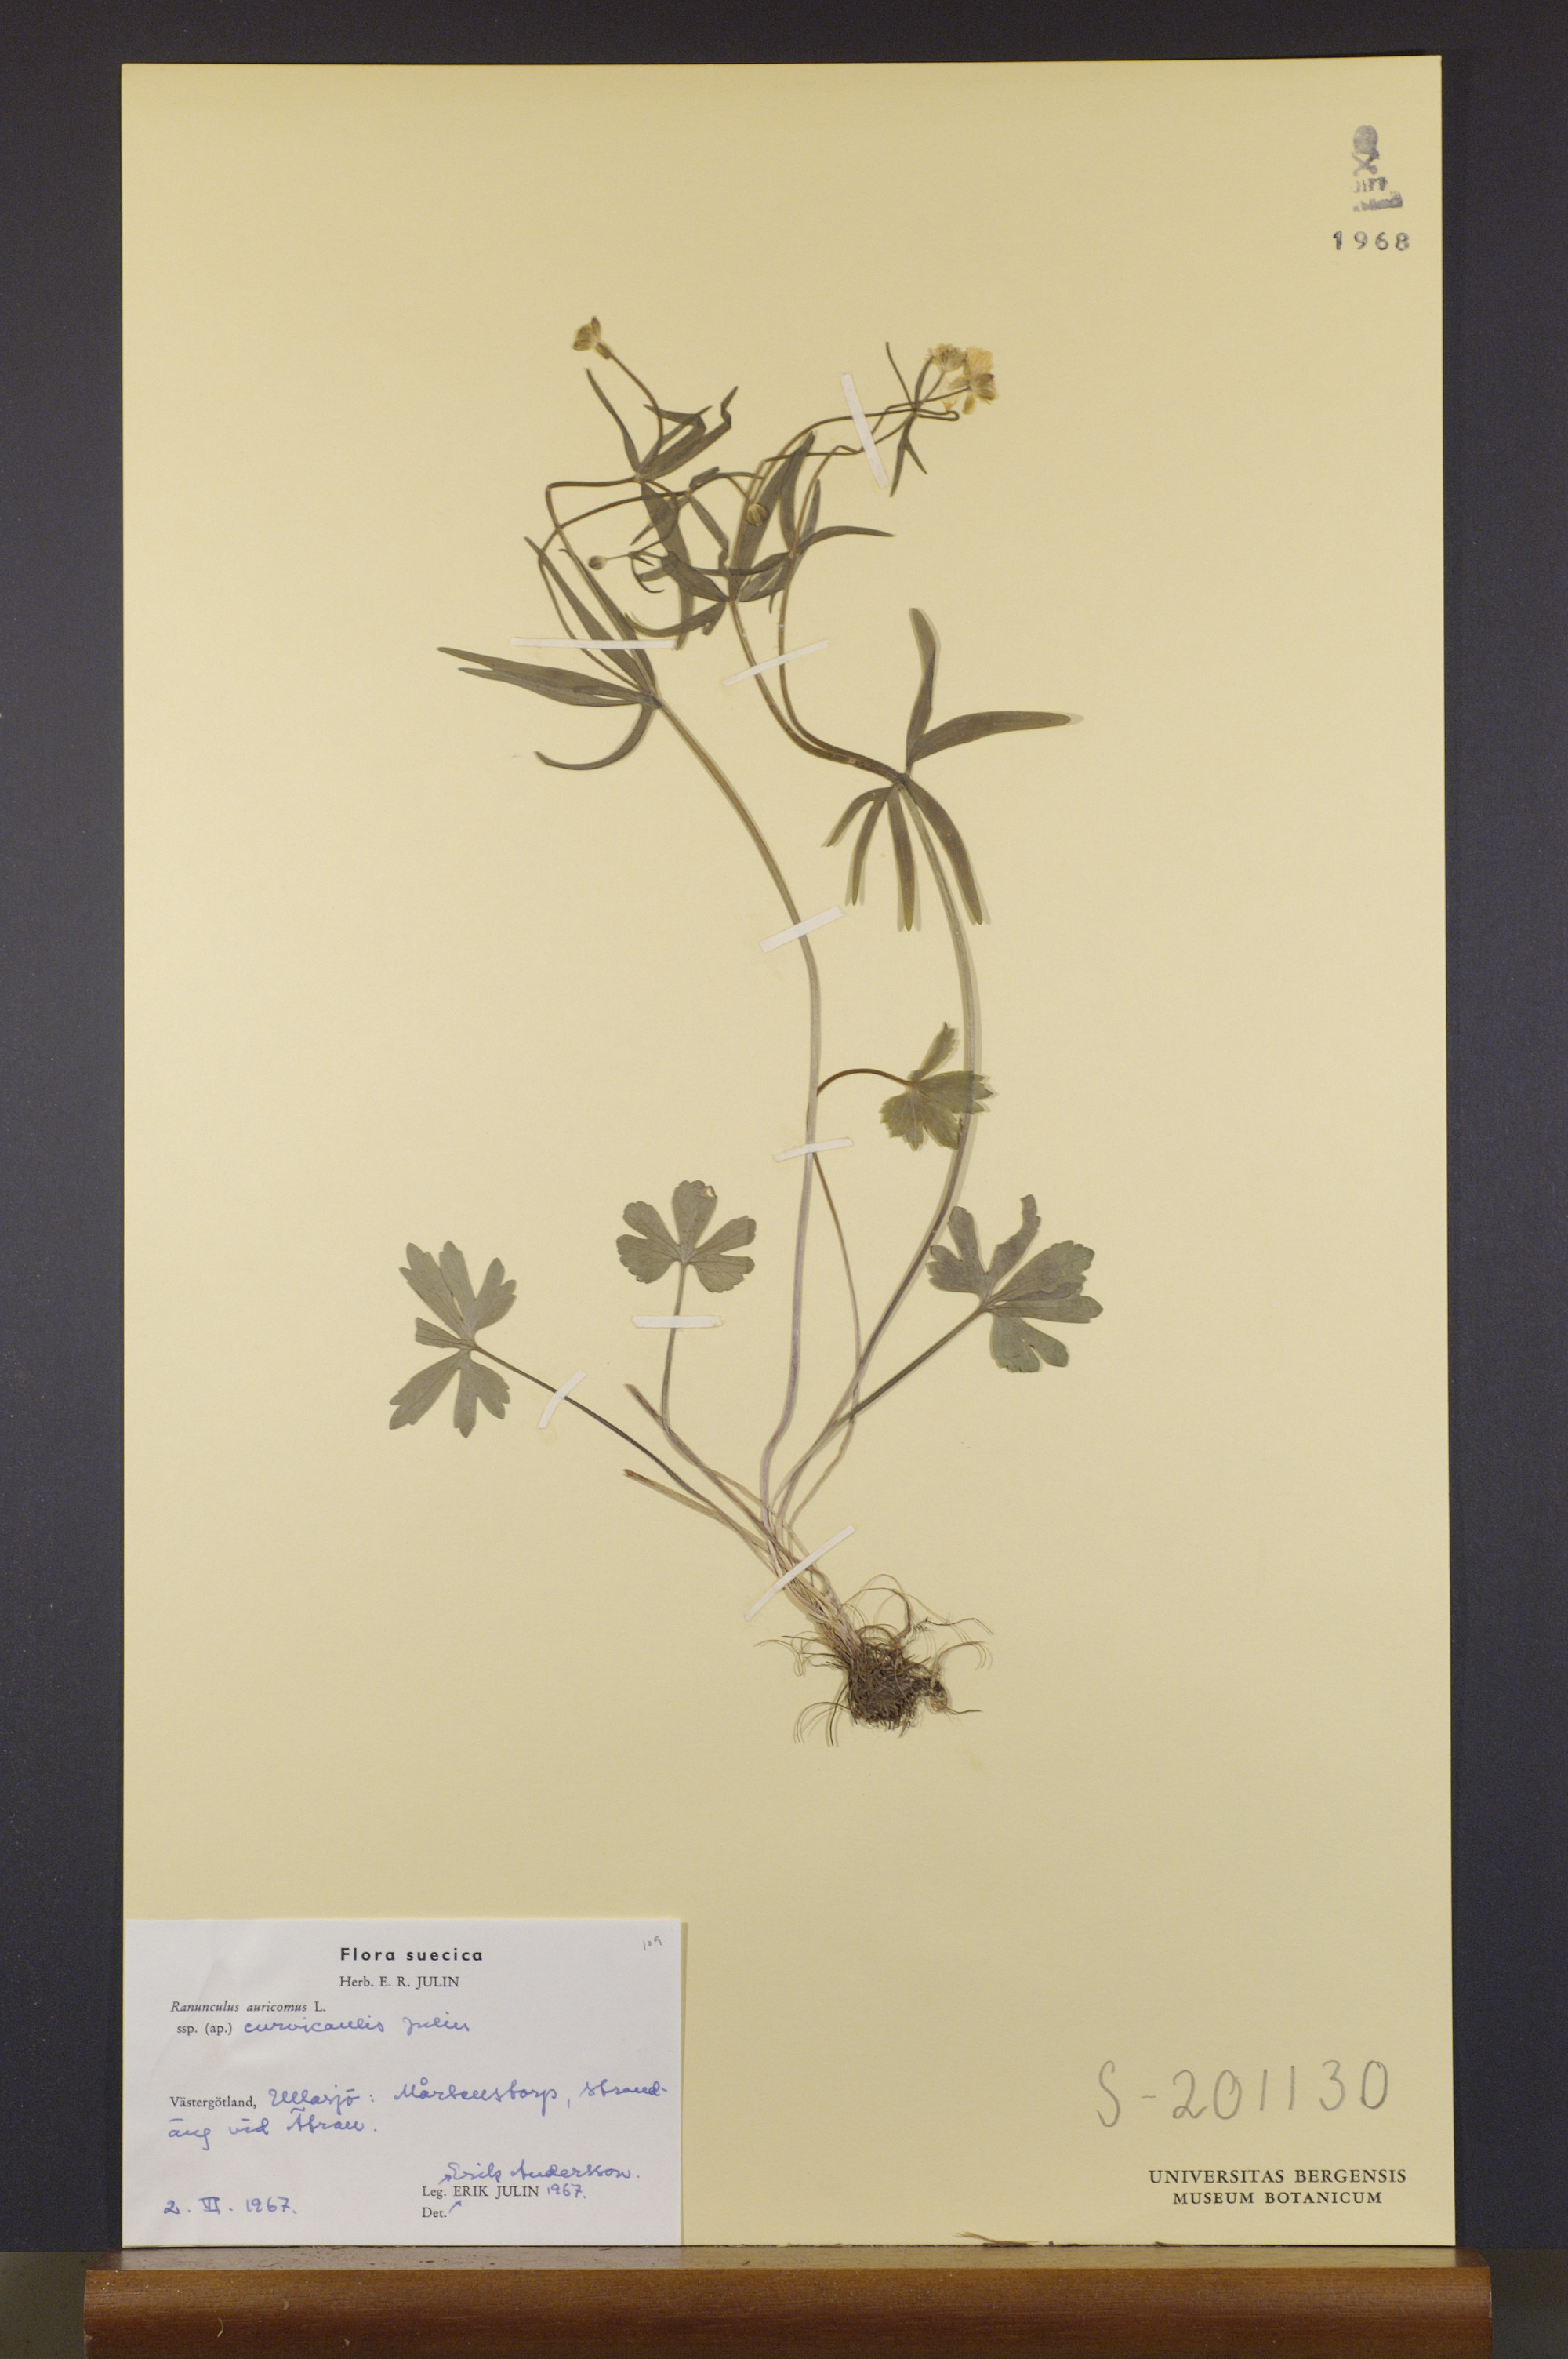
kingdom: Plantae
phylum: Tracheophyta
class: Magnoliopsida
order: Ranunculales
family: Ranunculaceae
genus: Ranunculus
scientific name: Ranunculus curvicaulis
